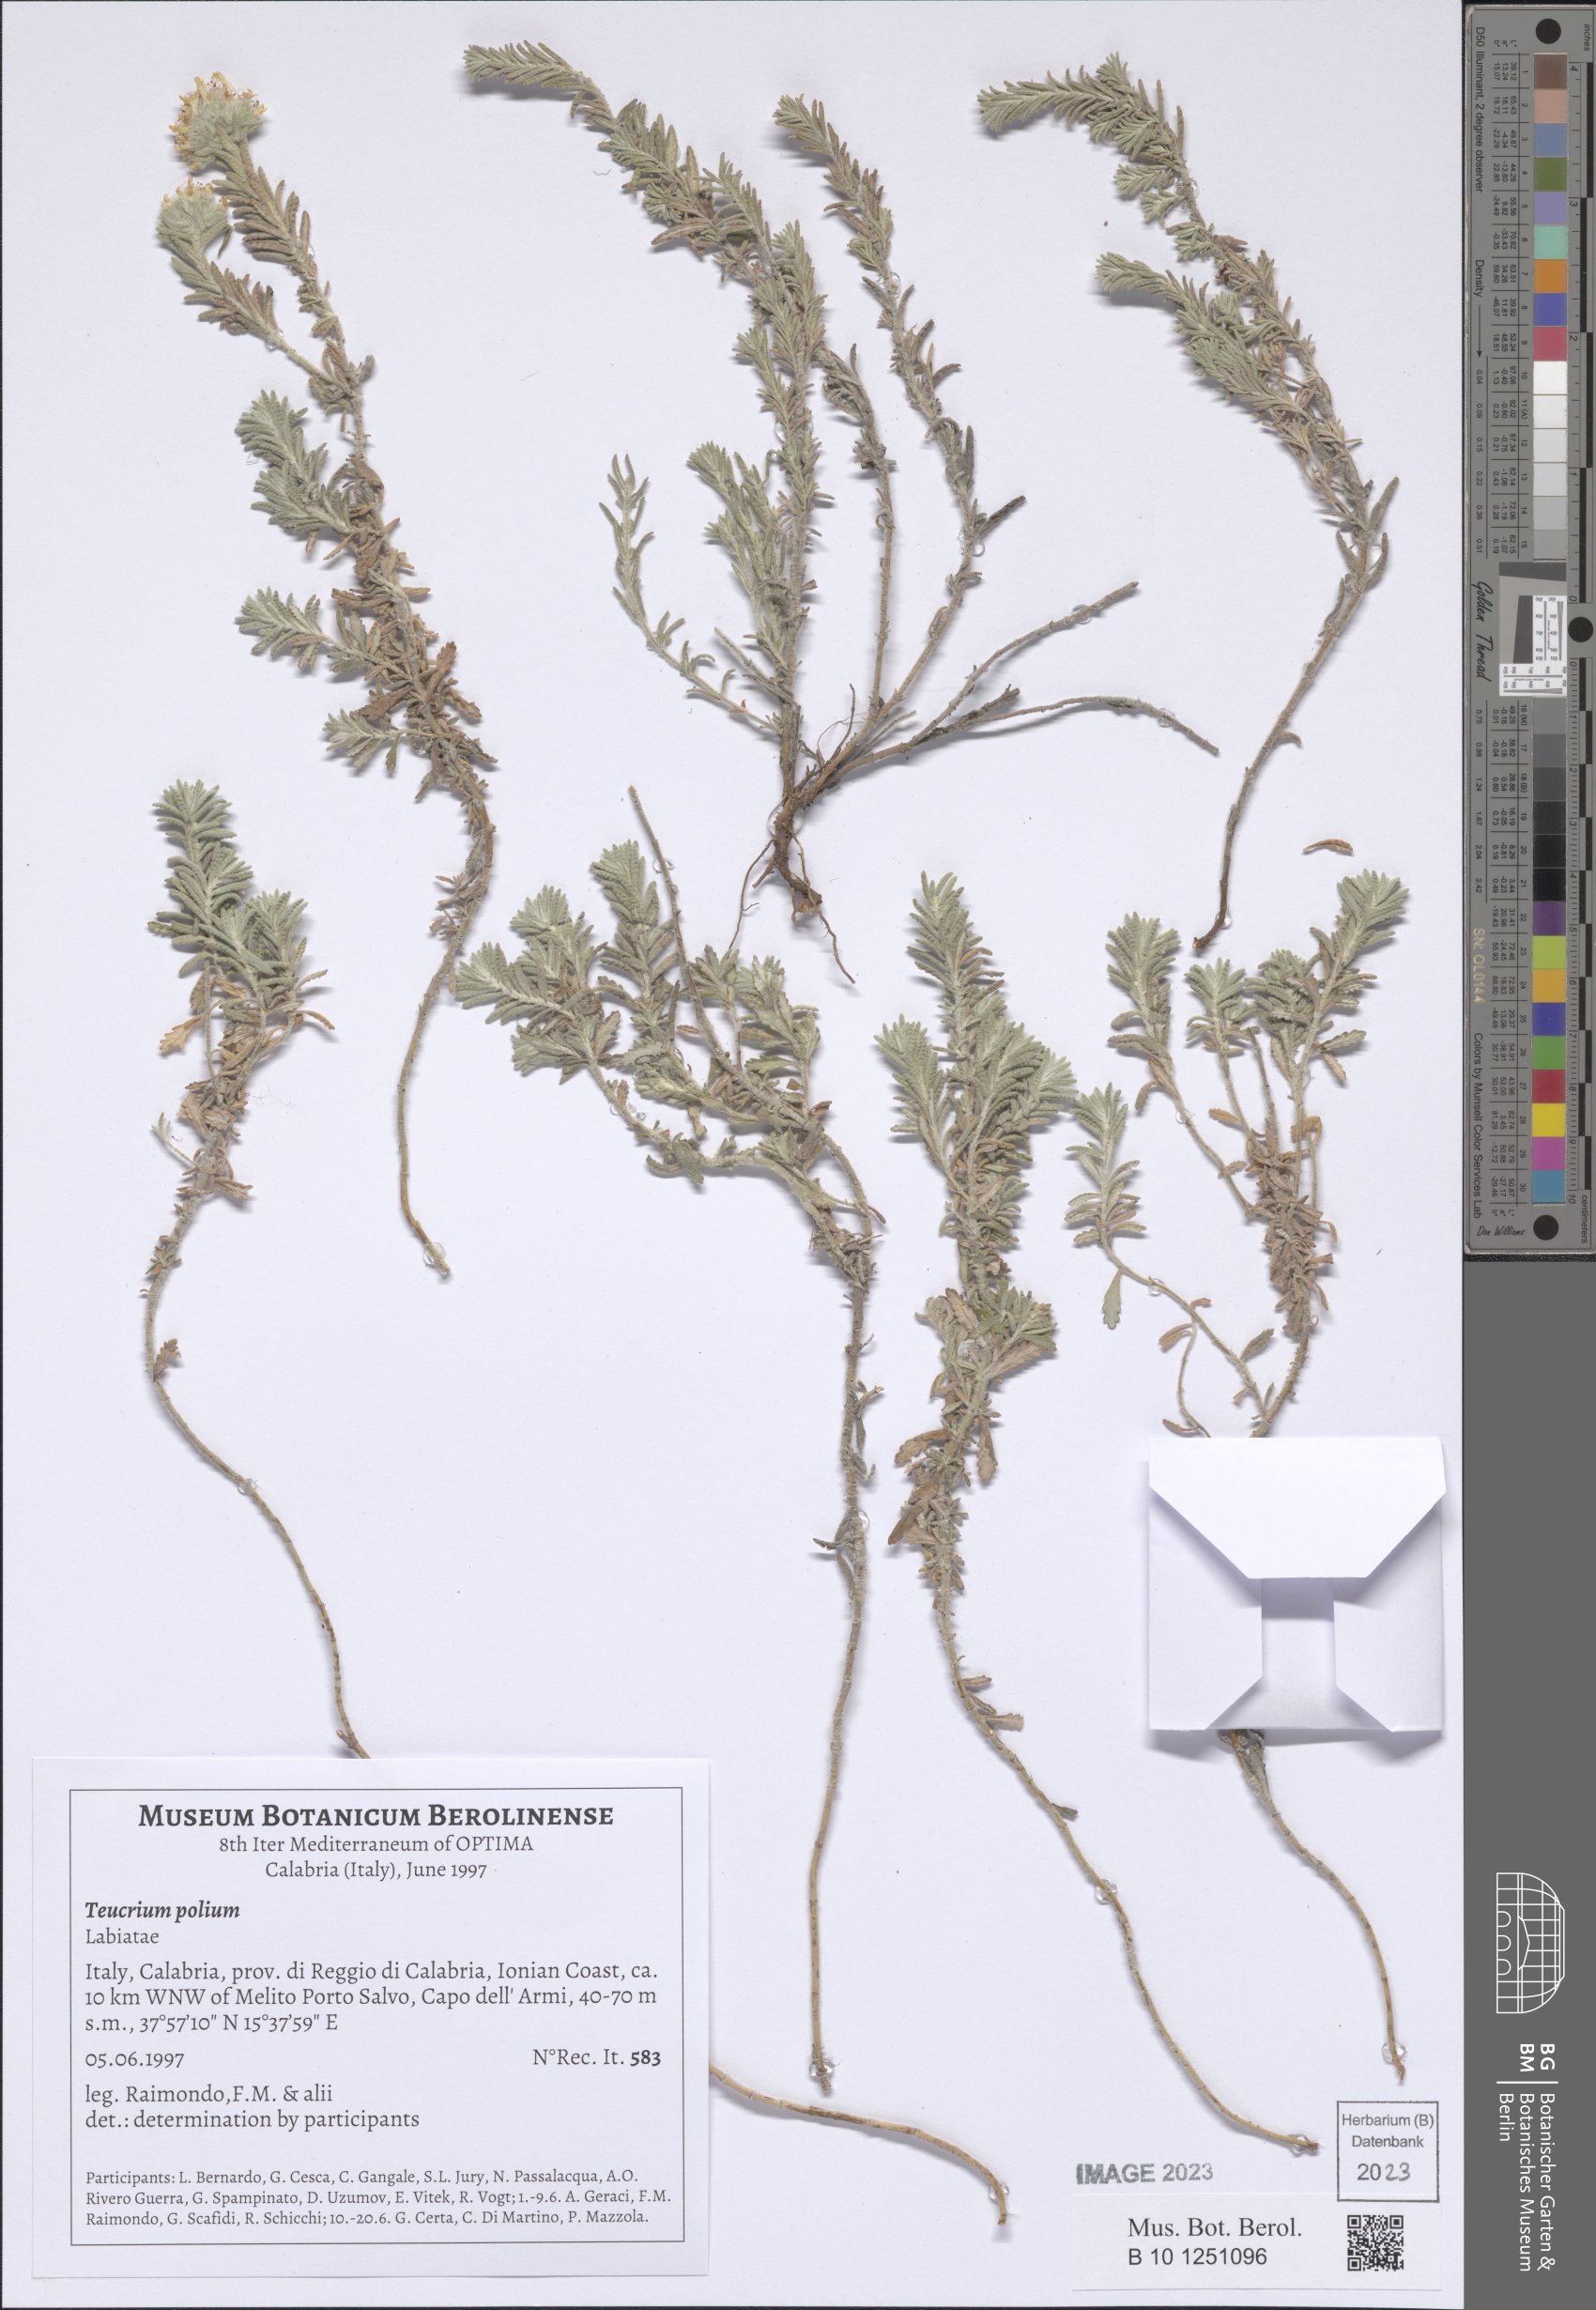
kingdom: Plantae
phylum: Tracheophyta
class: Magnoliopsida
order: Lamiales
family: Lamiaceae
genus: Teucrium
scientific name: Teucrium polium
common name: Poley
